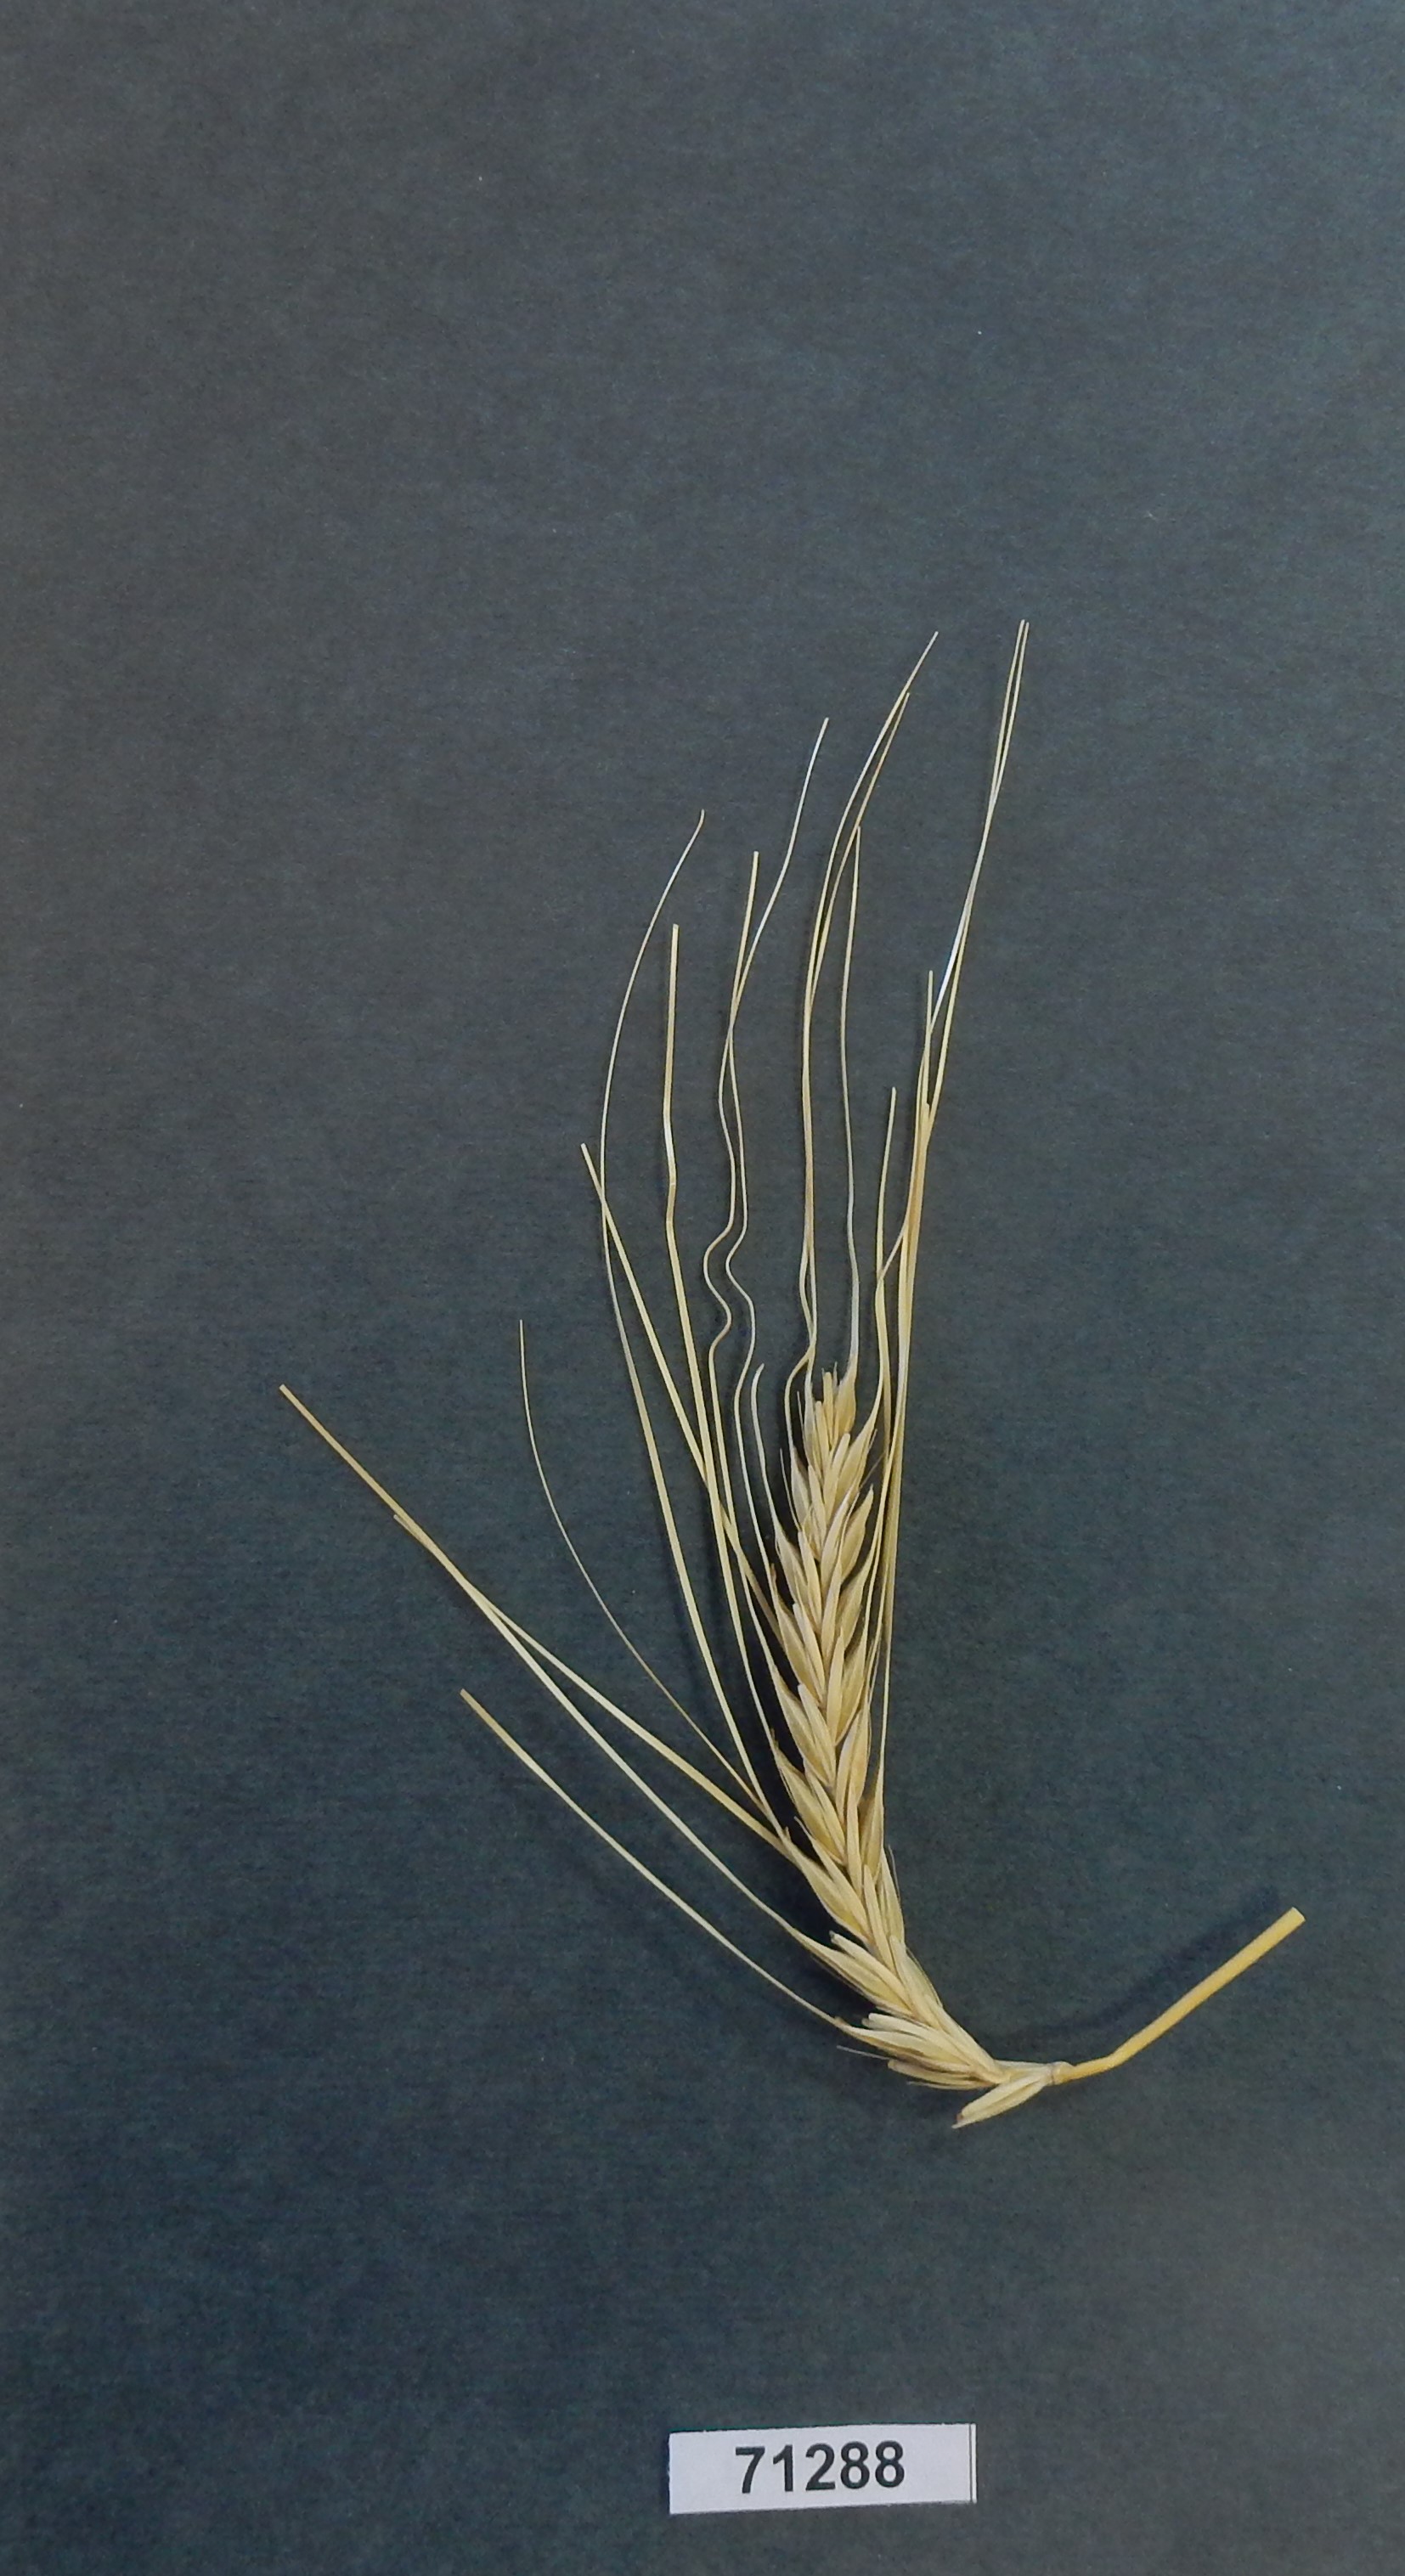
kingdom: Plantae
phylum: Tracheophyta
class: Liliopsida
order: Poales
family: Poaceae
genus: Hordeum
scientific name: Hordeum vulgare
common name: Barley
